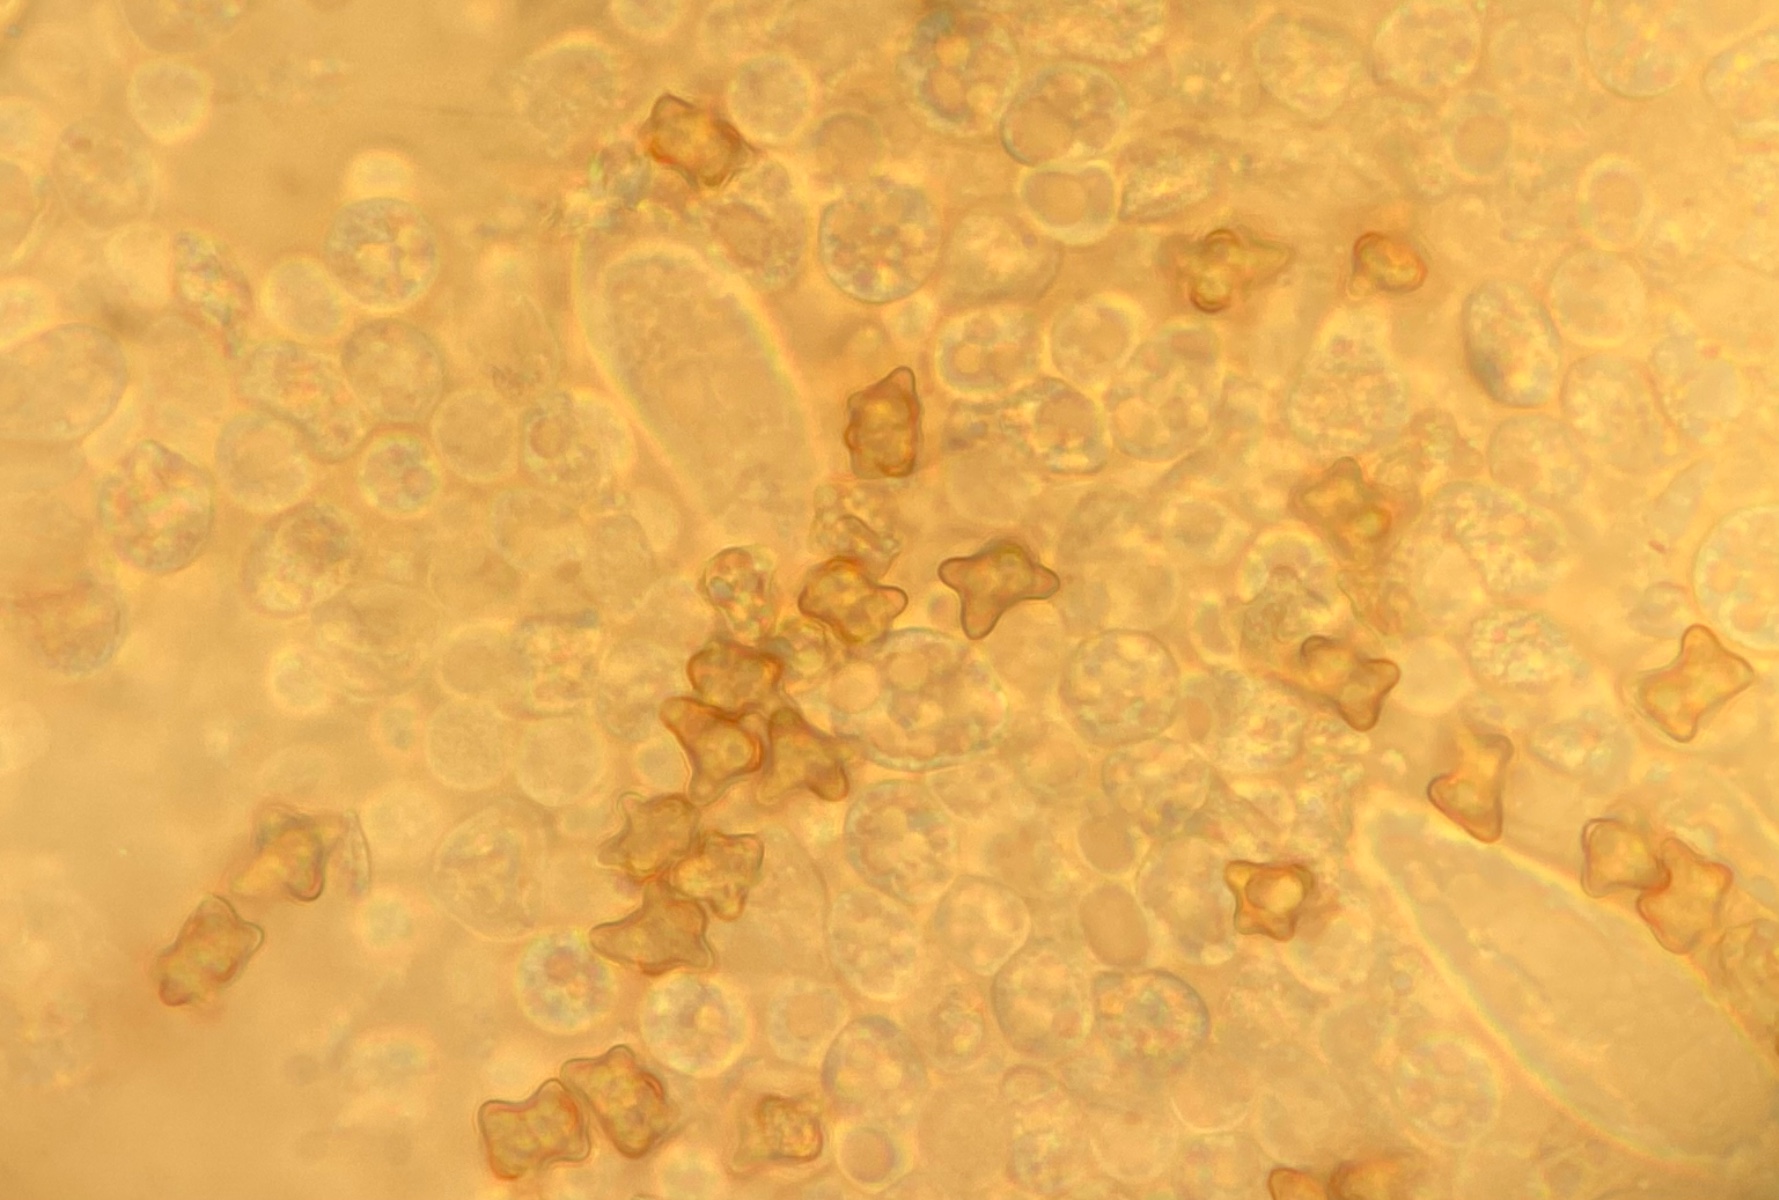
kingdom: Fungi
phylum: Basidiomycota
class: Agaricomycetes
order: Agaricales
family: Inocybaceae
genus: Inocybe
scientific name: Inocybe
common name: trævlhat
